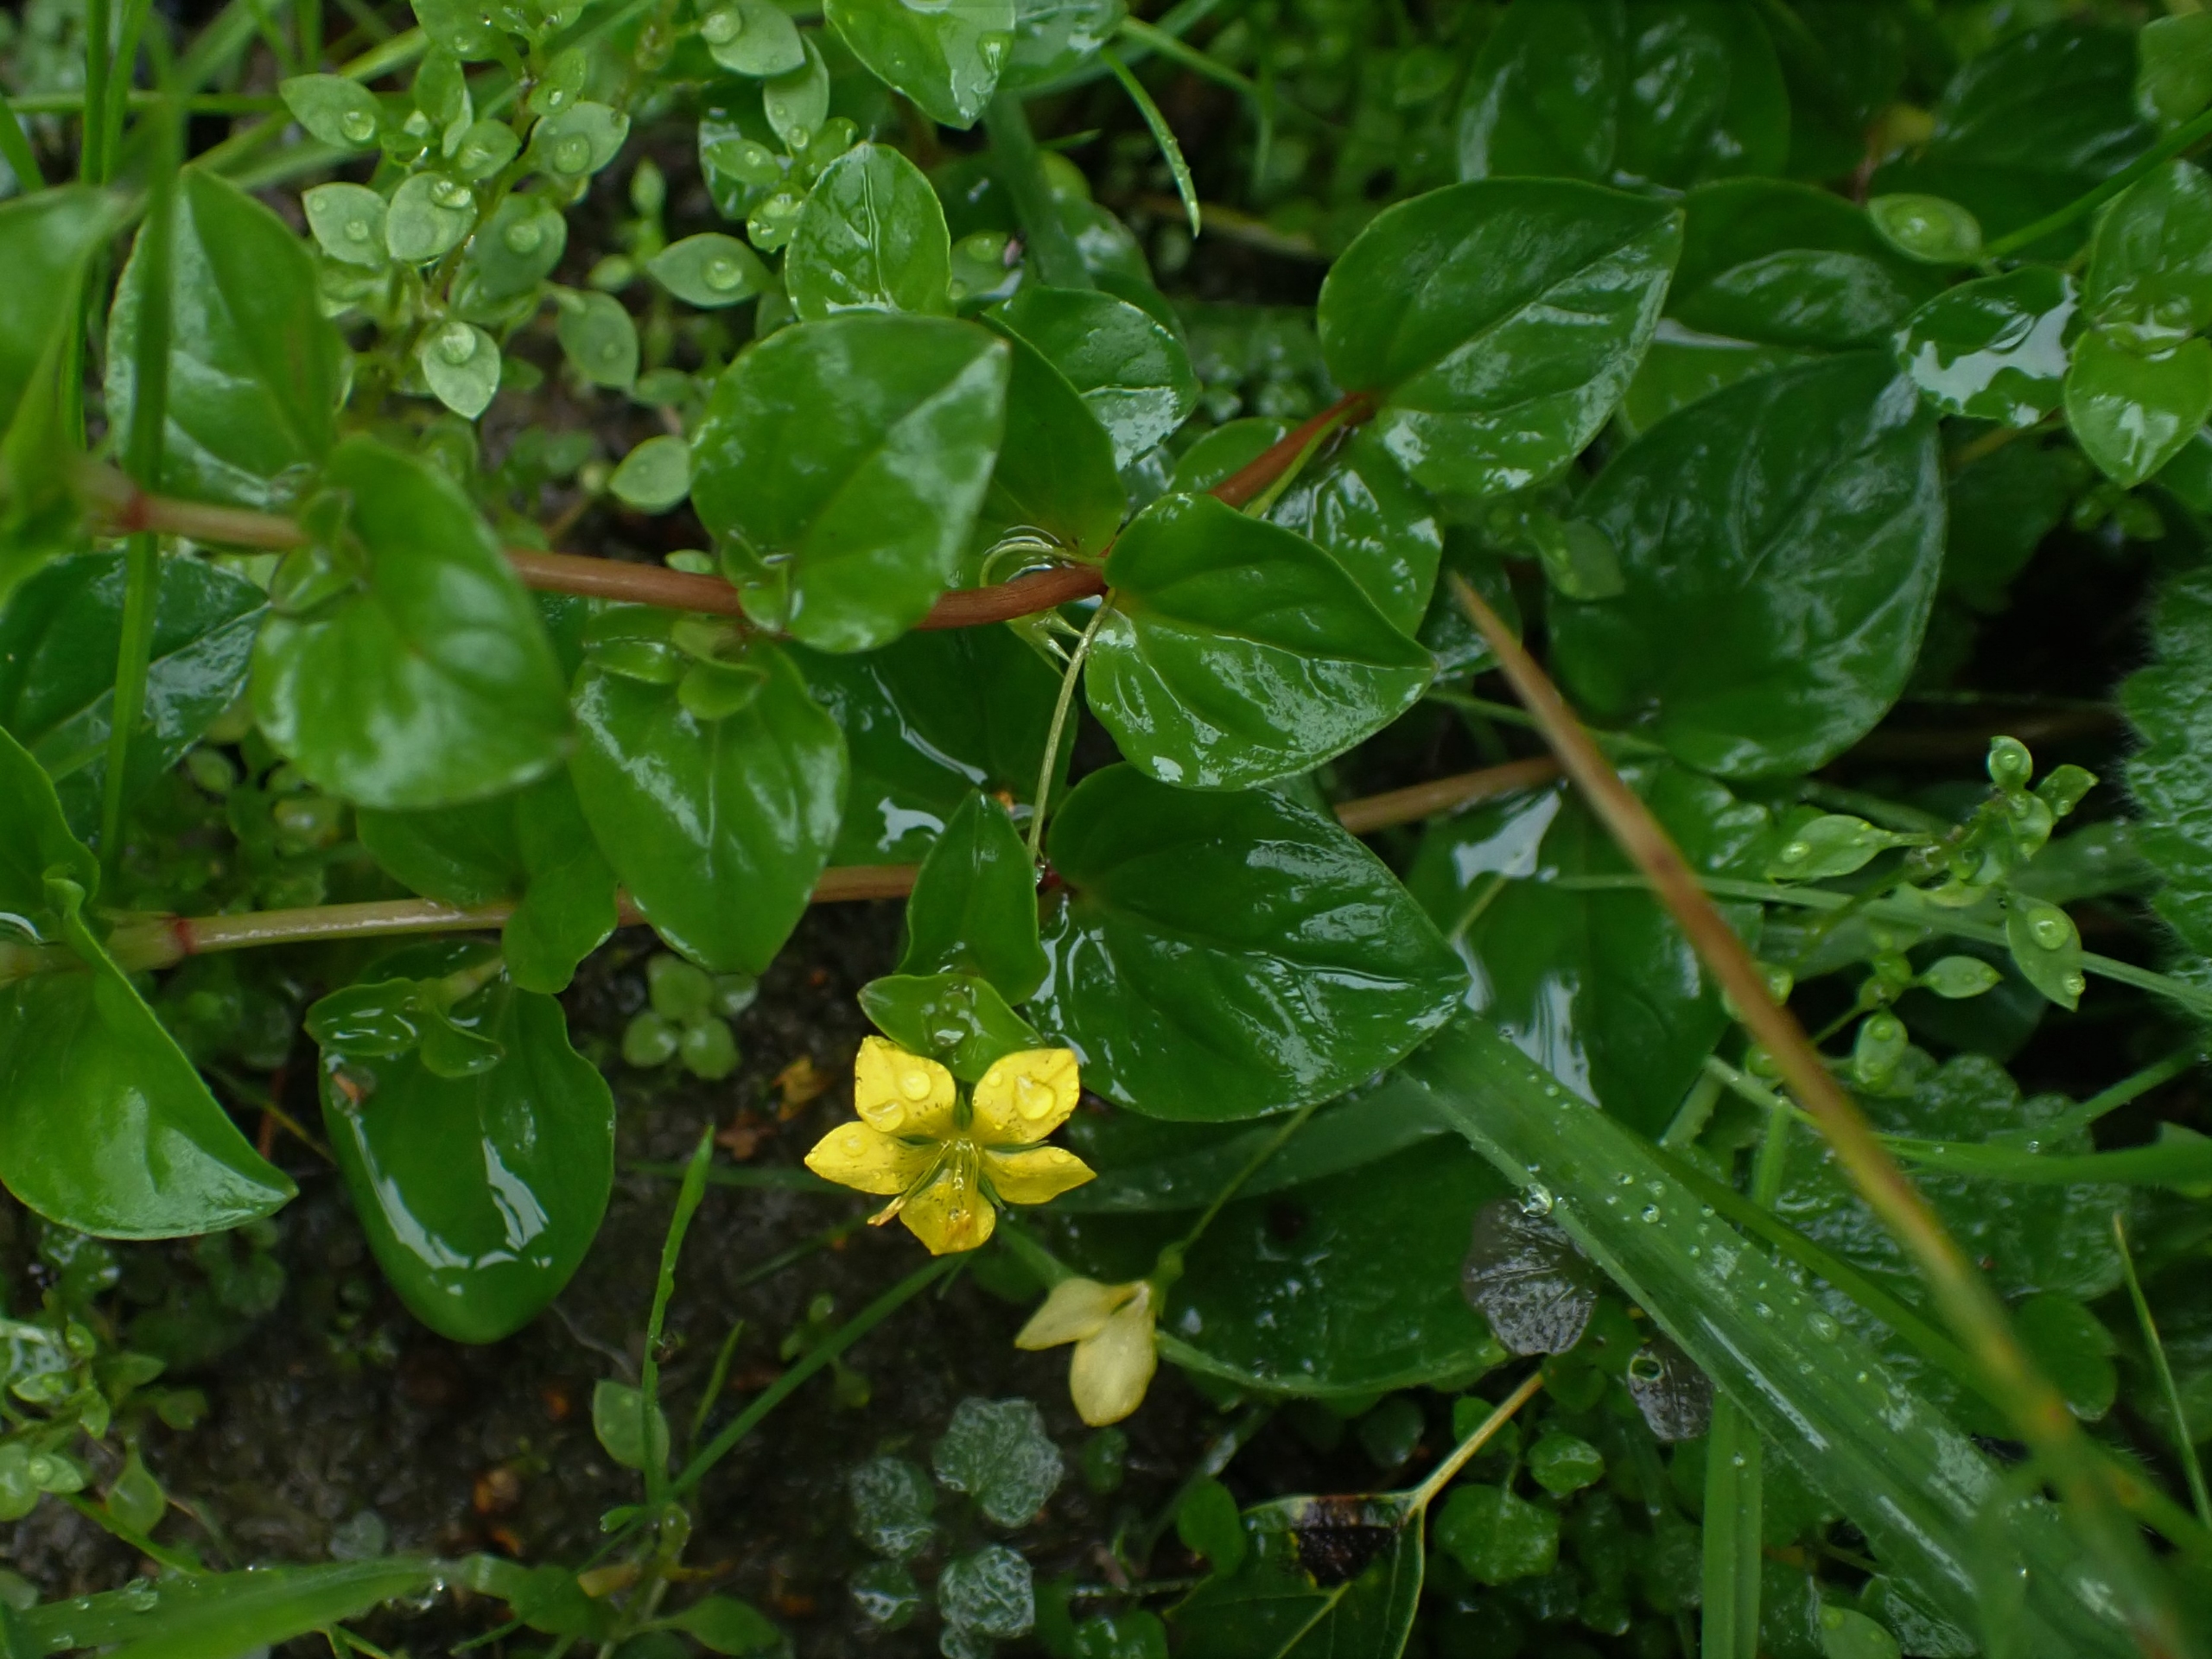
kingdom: Plantae
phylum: Tracheophyta
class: Magnoliopsida
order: Ericales
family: Primulaceae
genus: Lysimachia
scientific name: Lysimachia nemorum
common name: Lund-fredløs
